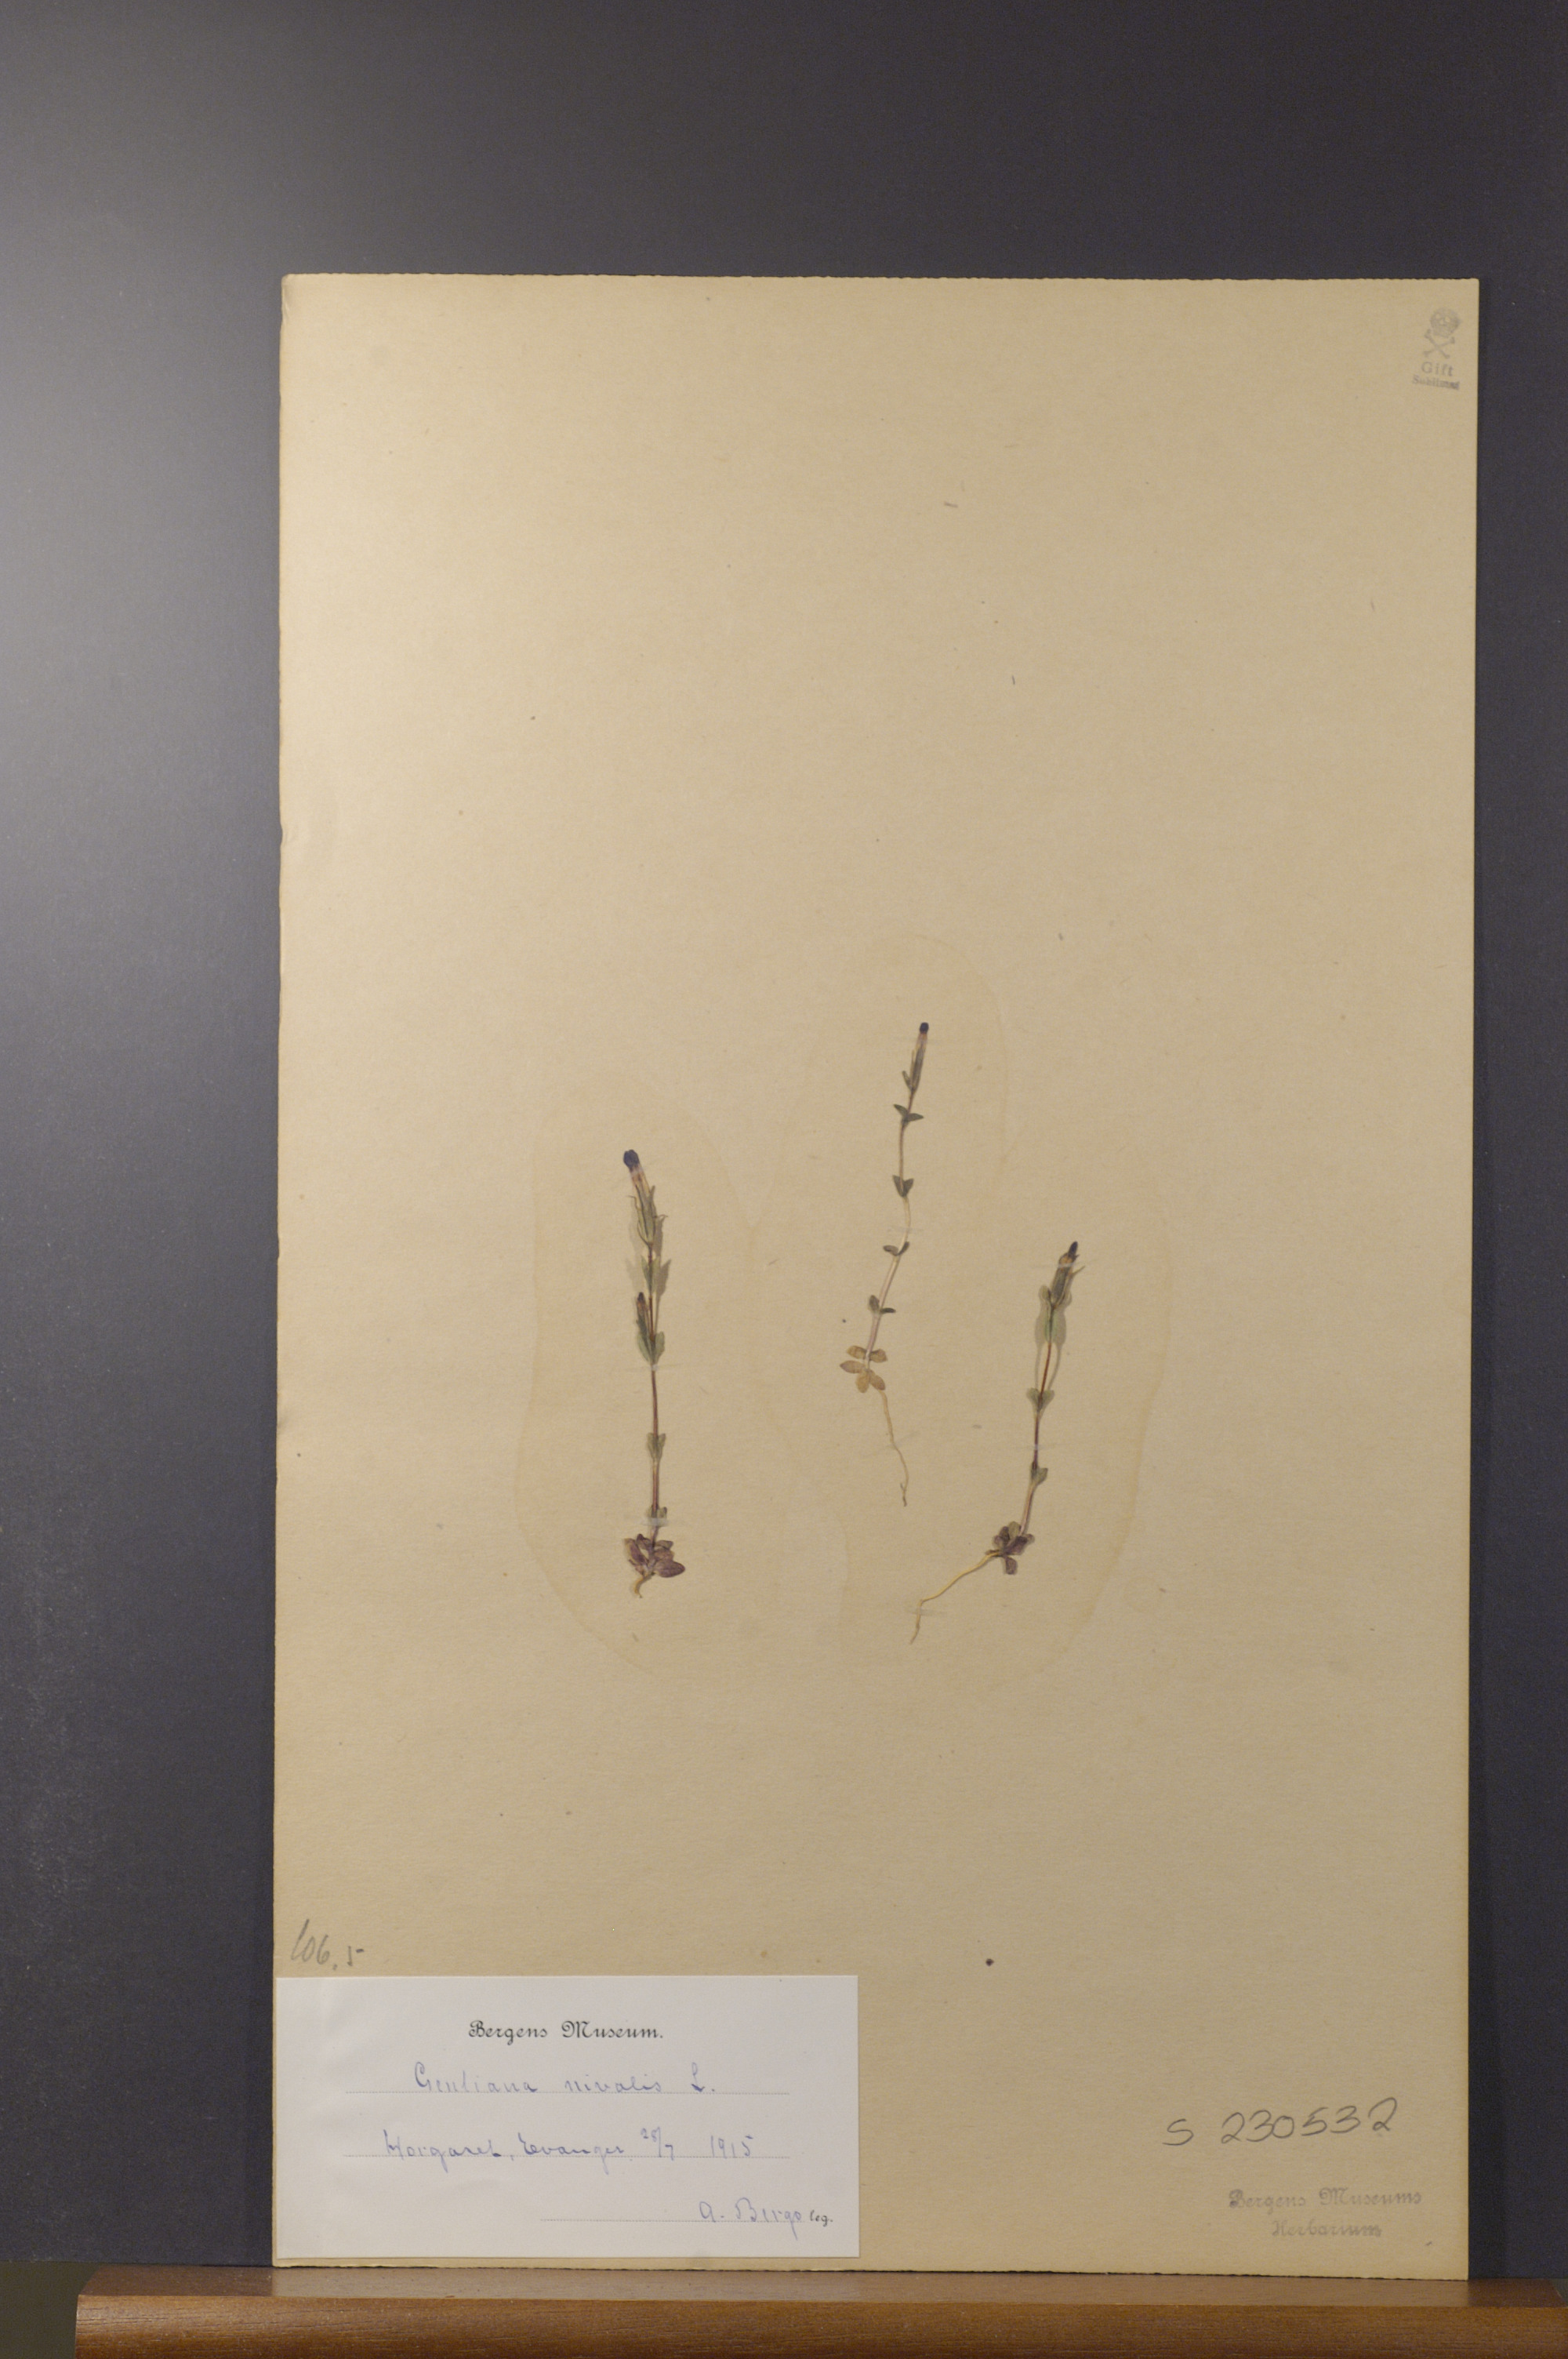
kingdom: Plantae
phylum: Tracheophyta
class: Magnoliopsida
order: Gentianales
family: Gentianaceae
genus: Gentiana
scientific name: Gentiana nivalis
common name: Alpine gentian
